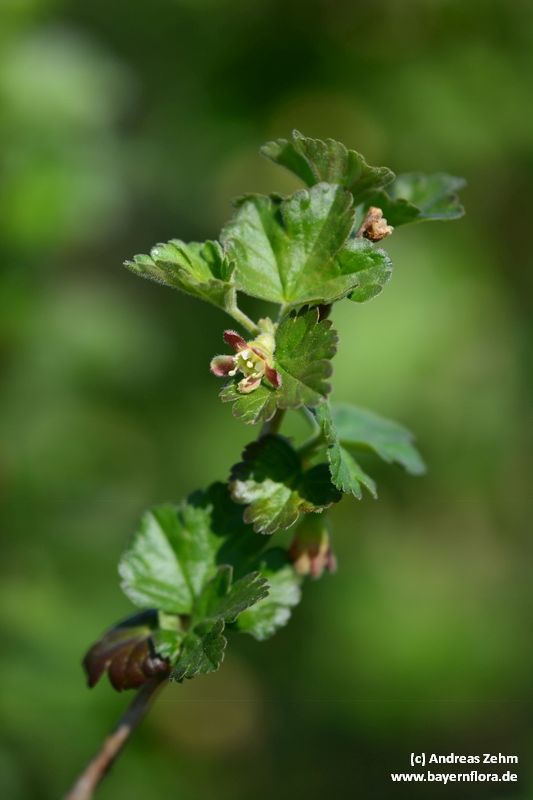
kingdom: Plantae
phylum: Tracheophyta
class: Magnoliopsida
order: Saxifragales
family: Grossulariaceae
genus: Ribes
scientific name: Ribes uva-crispa
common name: Gooseberry
